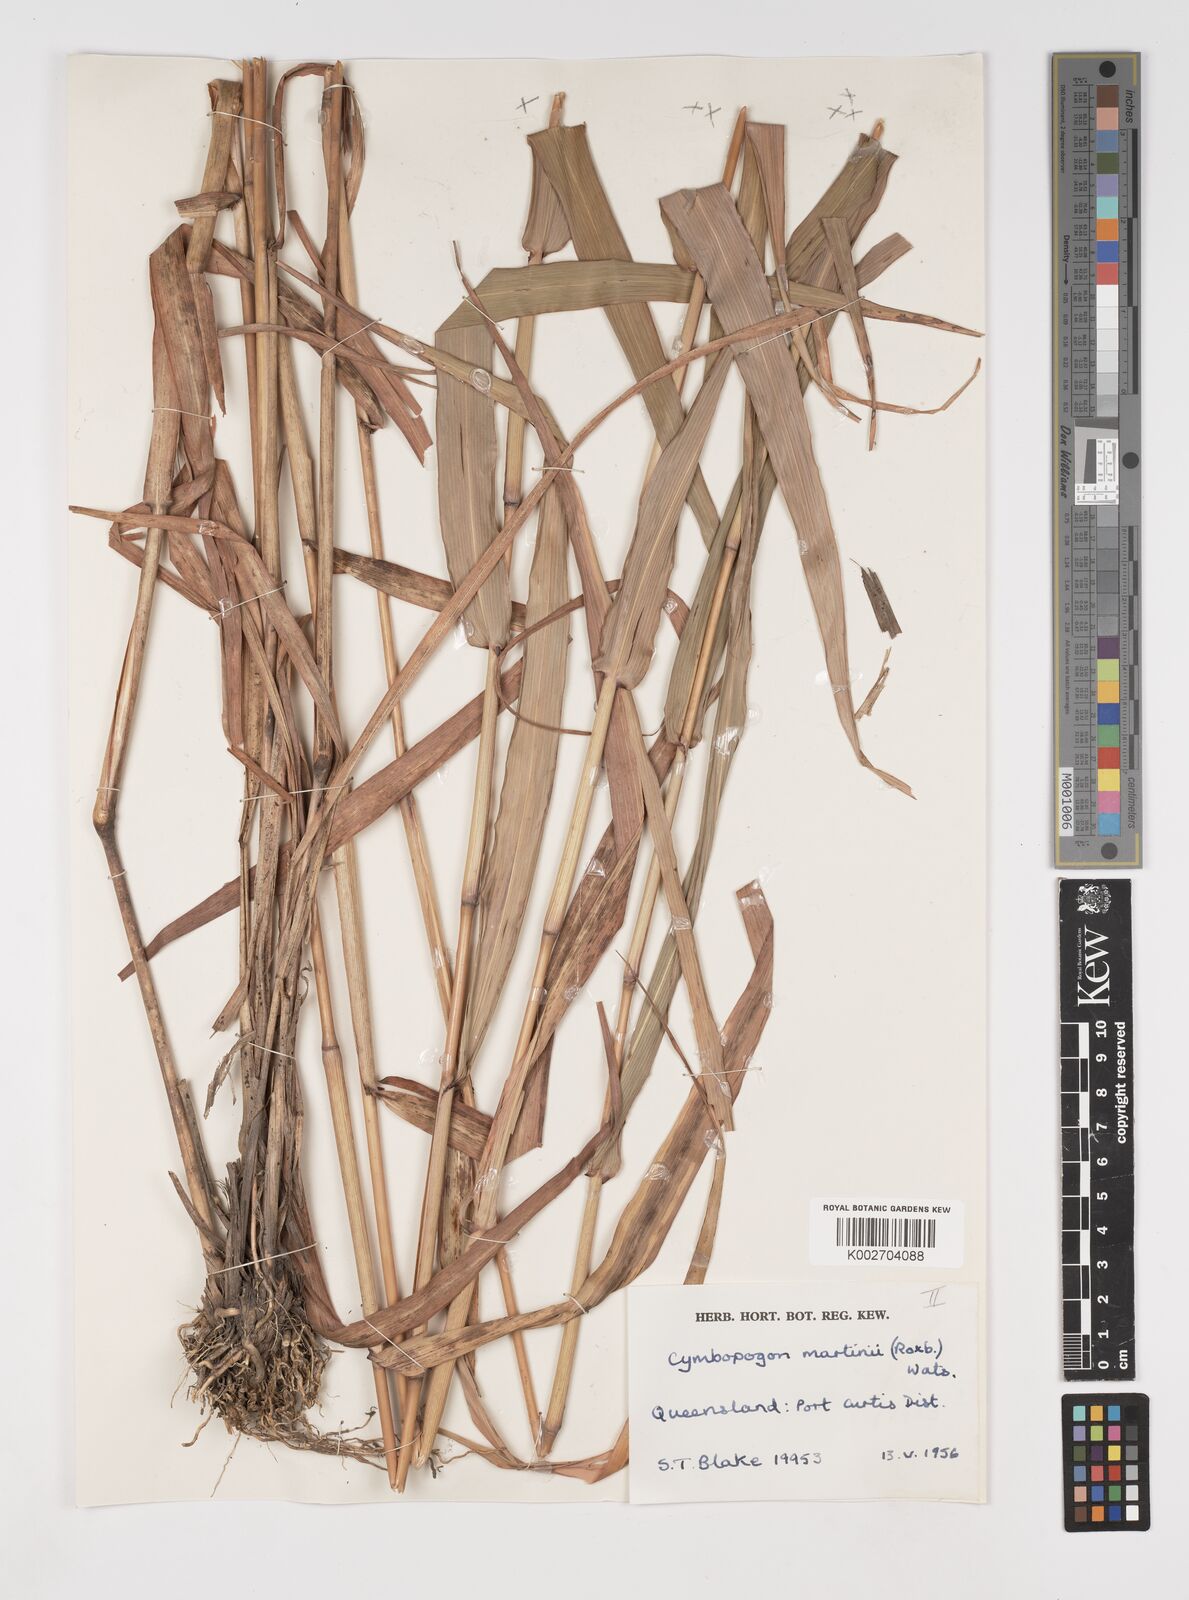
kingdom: Plantae
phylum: Tracheophyta
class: Liliopsida
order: Poales
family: Poaceae
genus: Cymbopogon
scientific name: Cymbopogon martini
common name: Ginger grass
